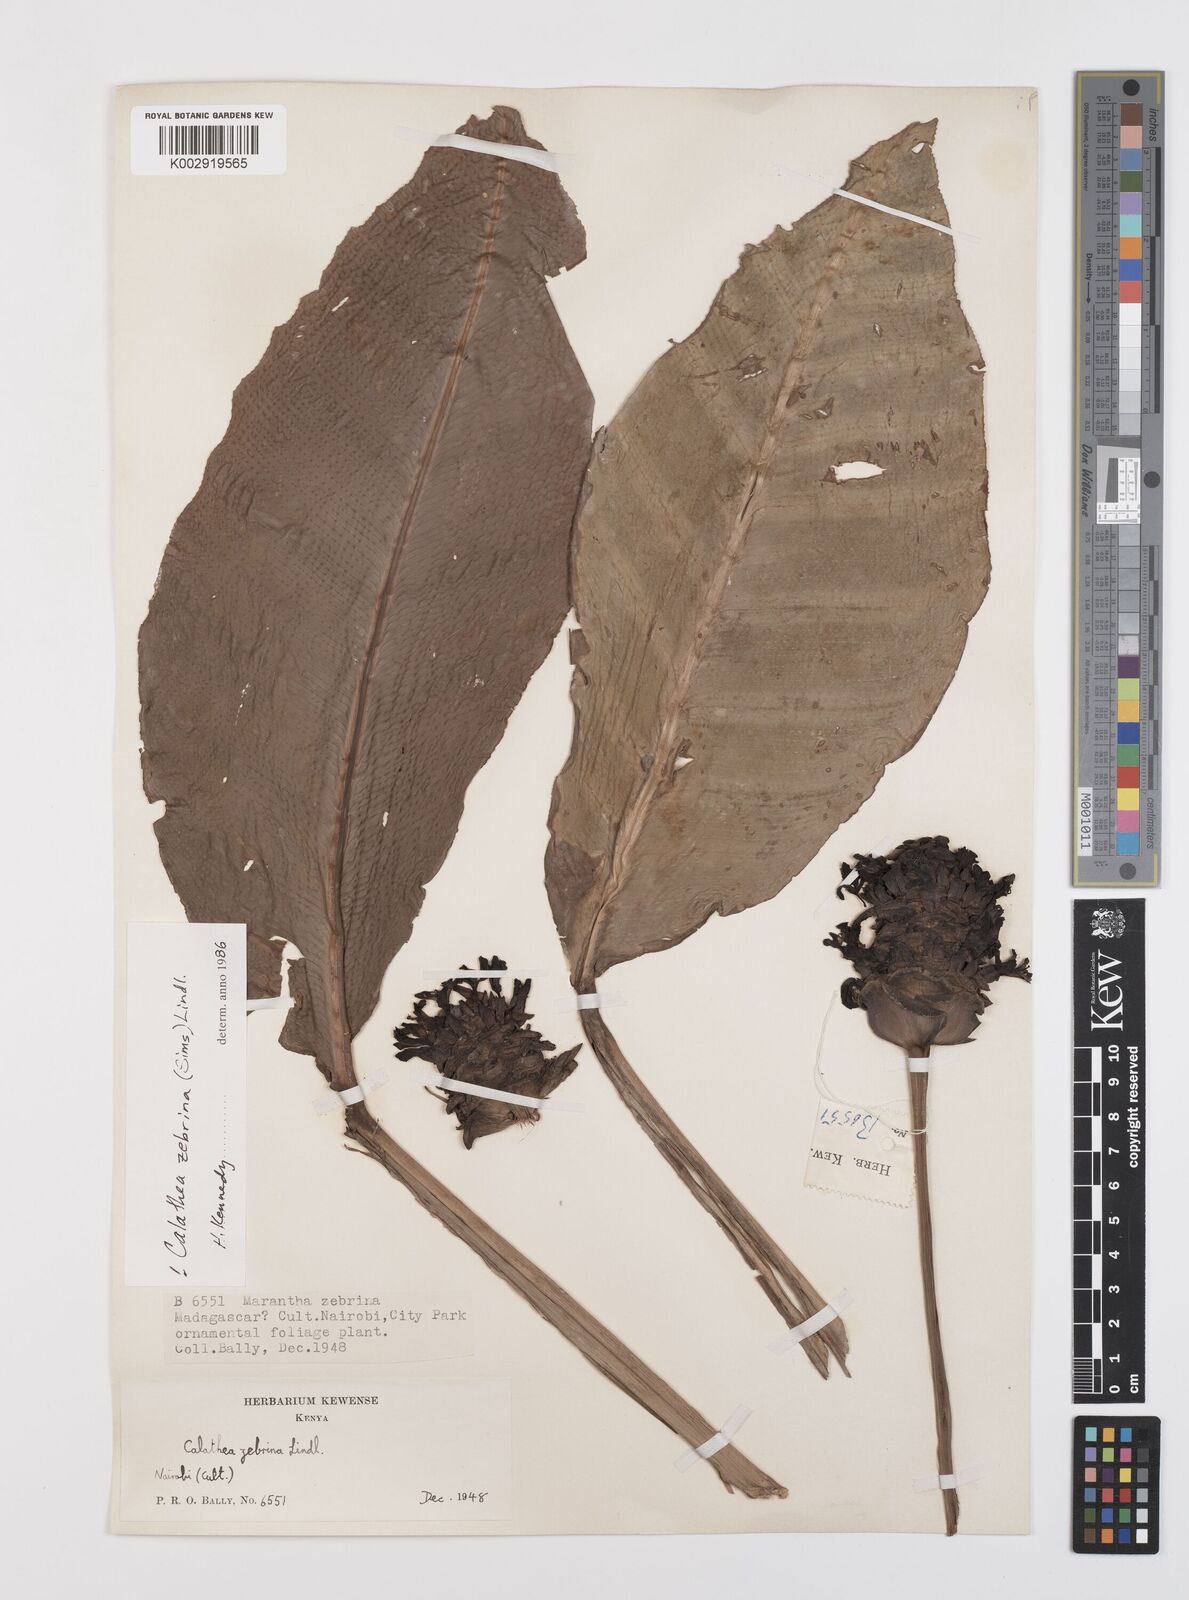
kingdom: Plantae
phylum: Tracheophyta
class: Liliopsida
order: Zingiberales
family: Marantaceae
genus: Goeppertia
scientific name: Goeppertia zebrina
